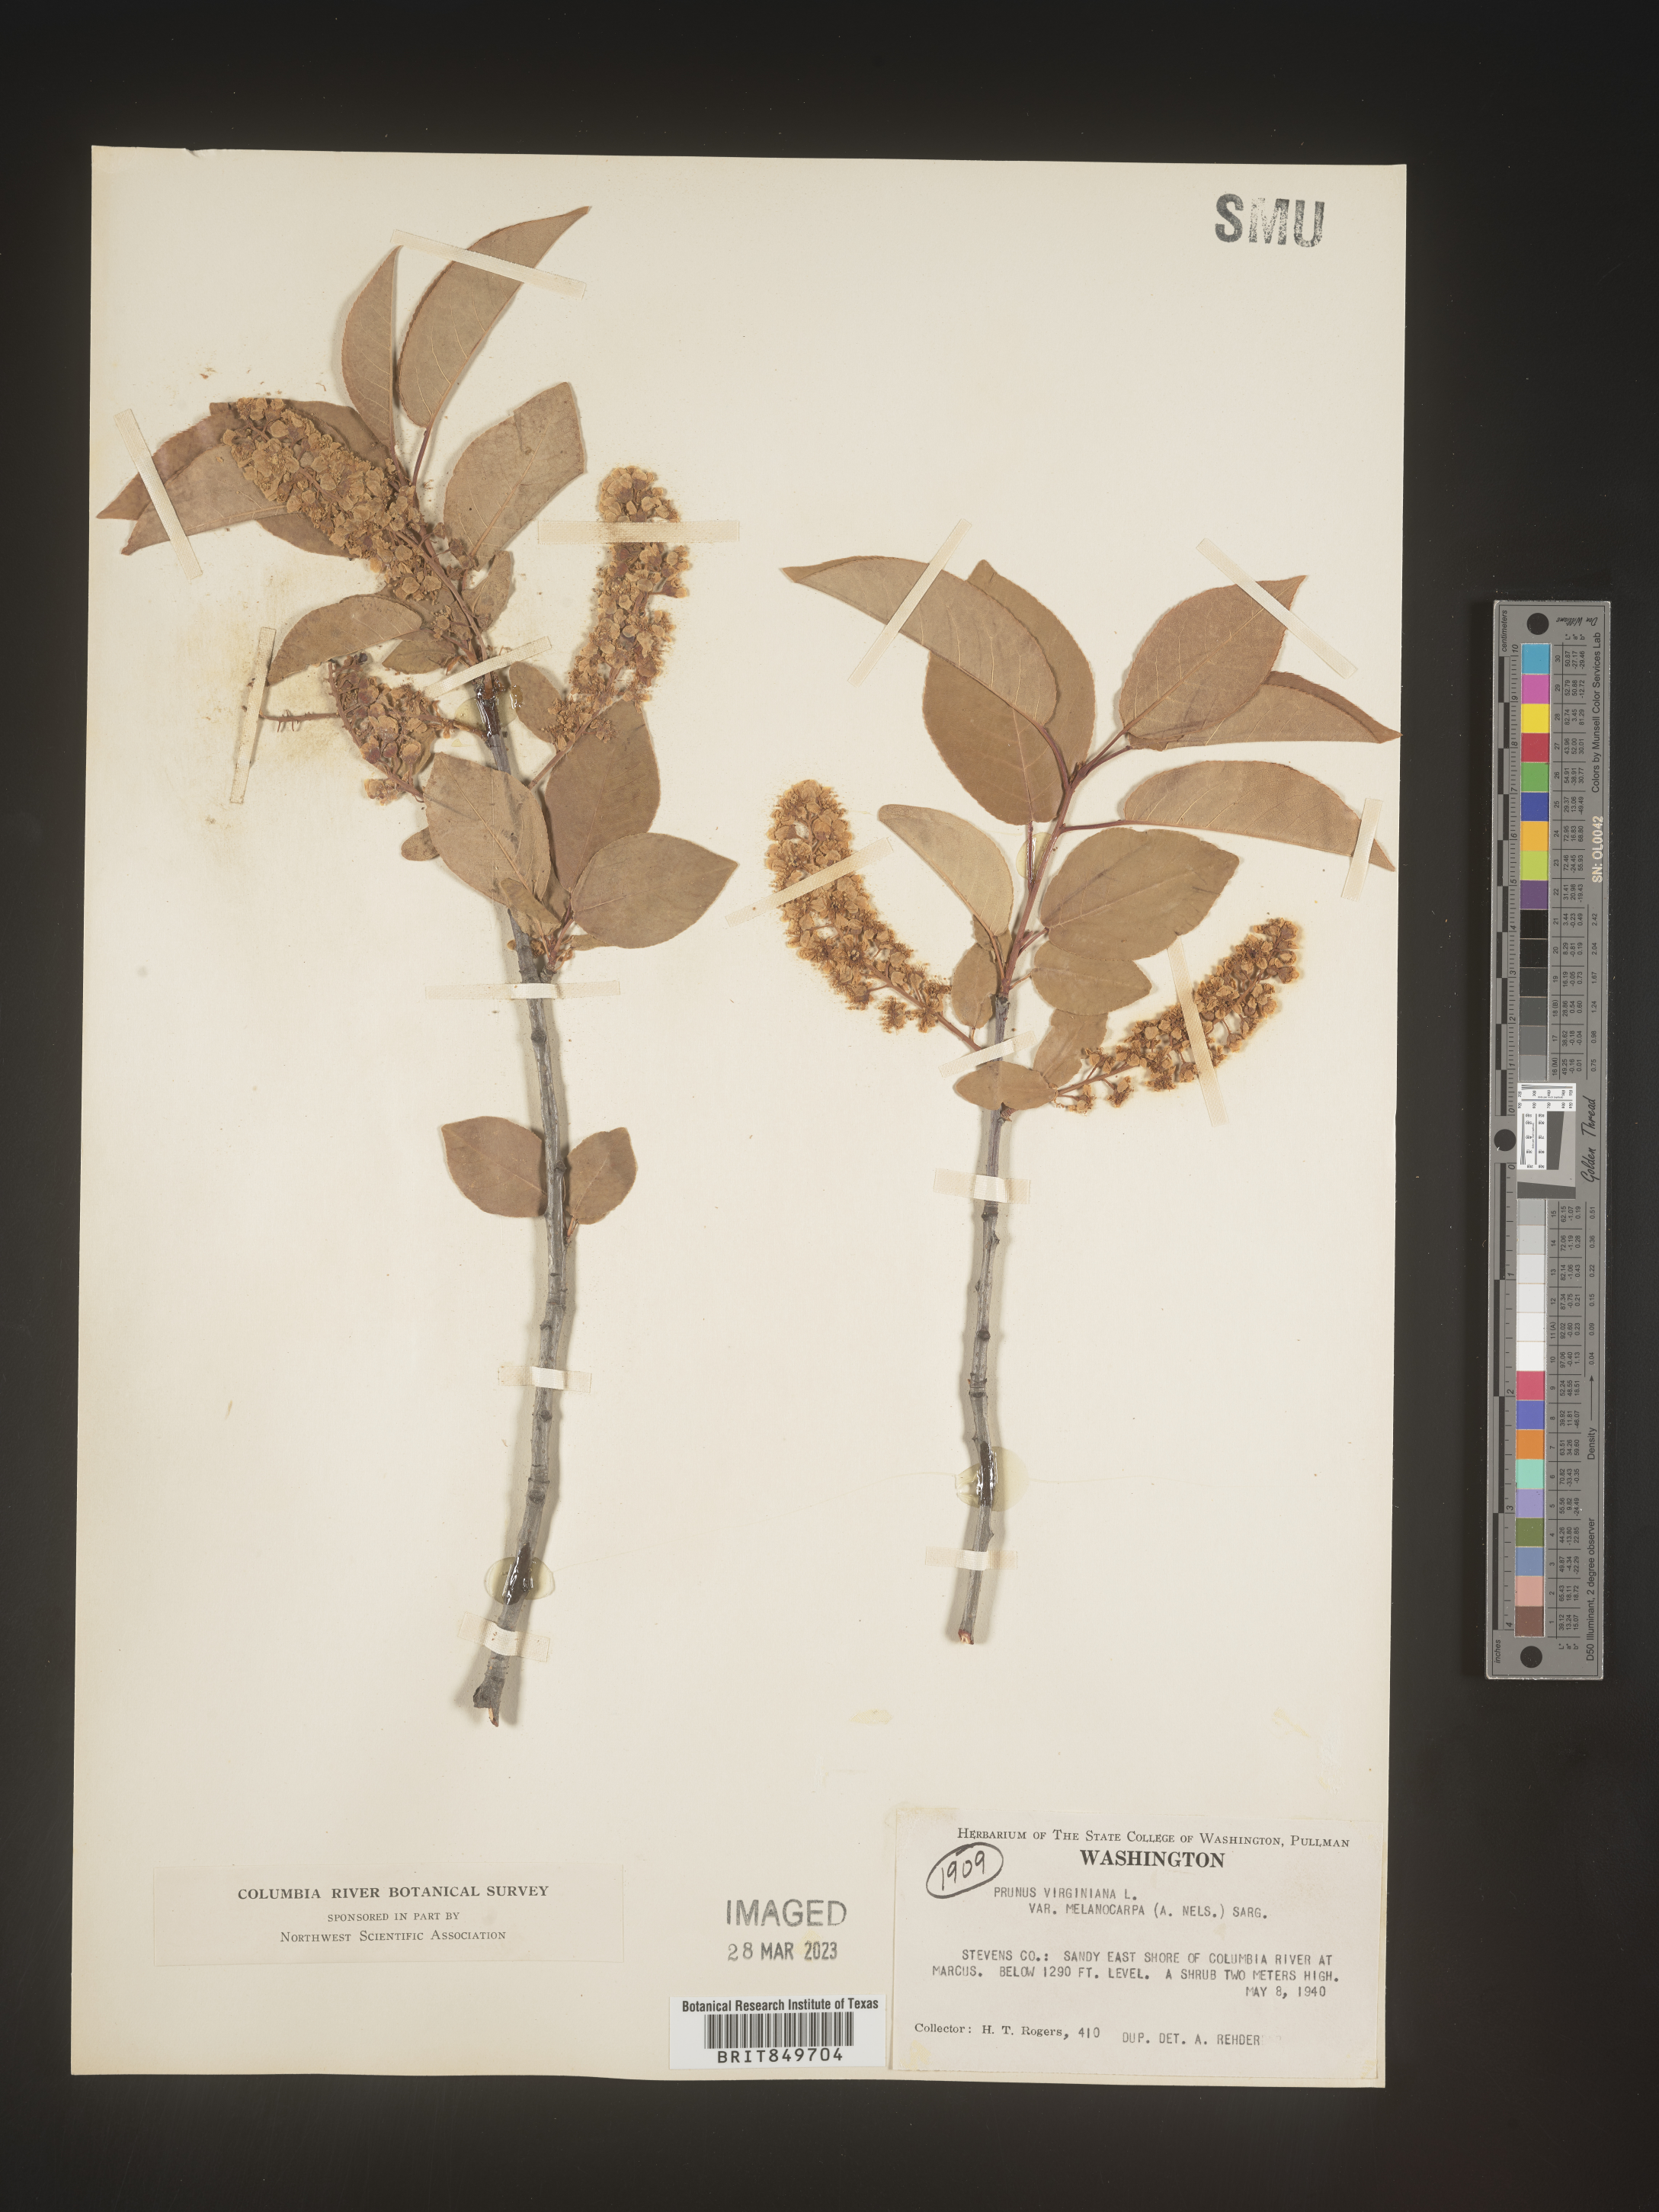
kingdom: Plantae
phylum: Tracheophyta
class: Magnoliopsida
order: Rosales
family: Rosaceae
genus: Prunus
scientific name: Prunus virginiana
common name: Chokecherry
